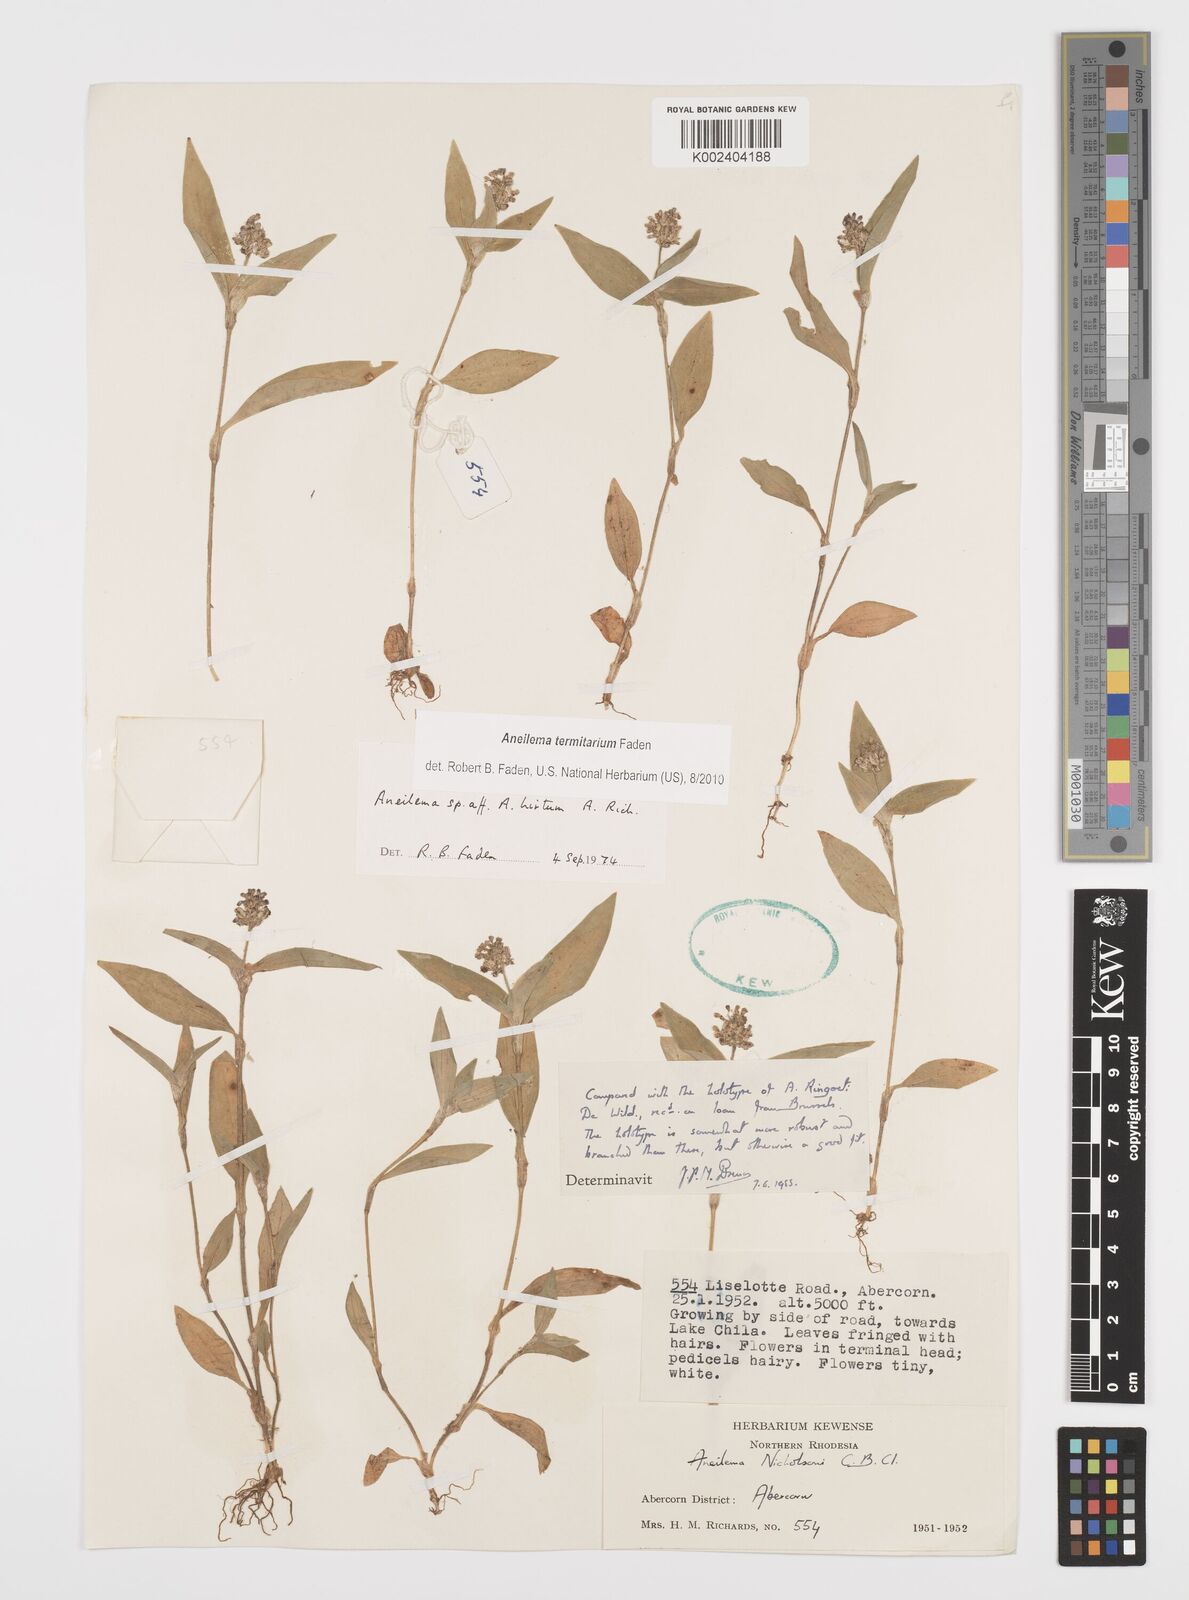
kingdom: Plantae
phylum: Tracheophyta
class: Liliopsida
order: Commelinales
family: Commelinaceae
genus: Aneilema
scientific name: Aneilema termitarium
